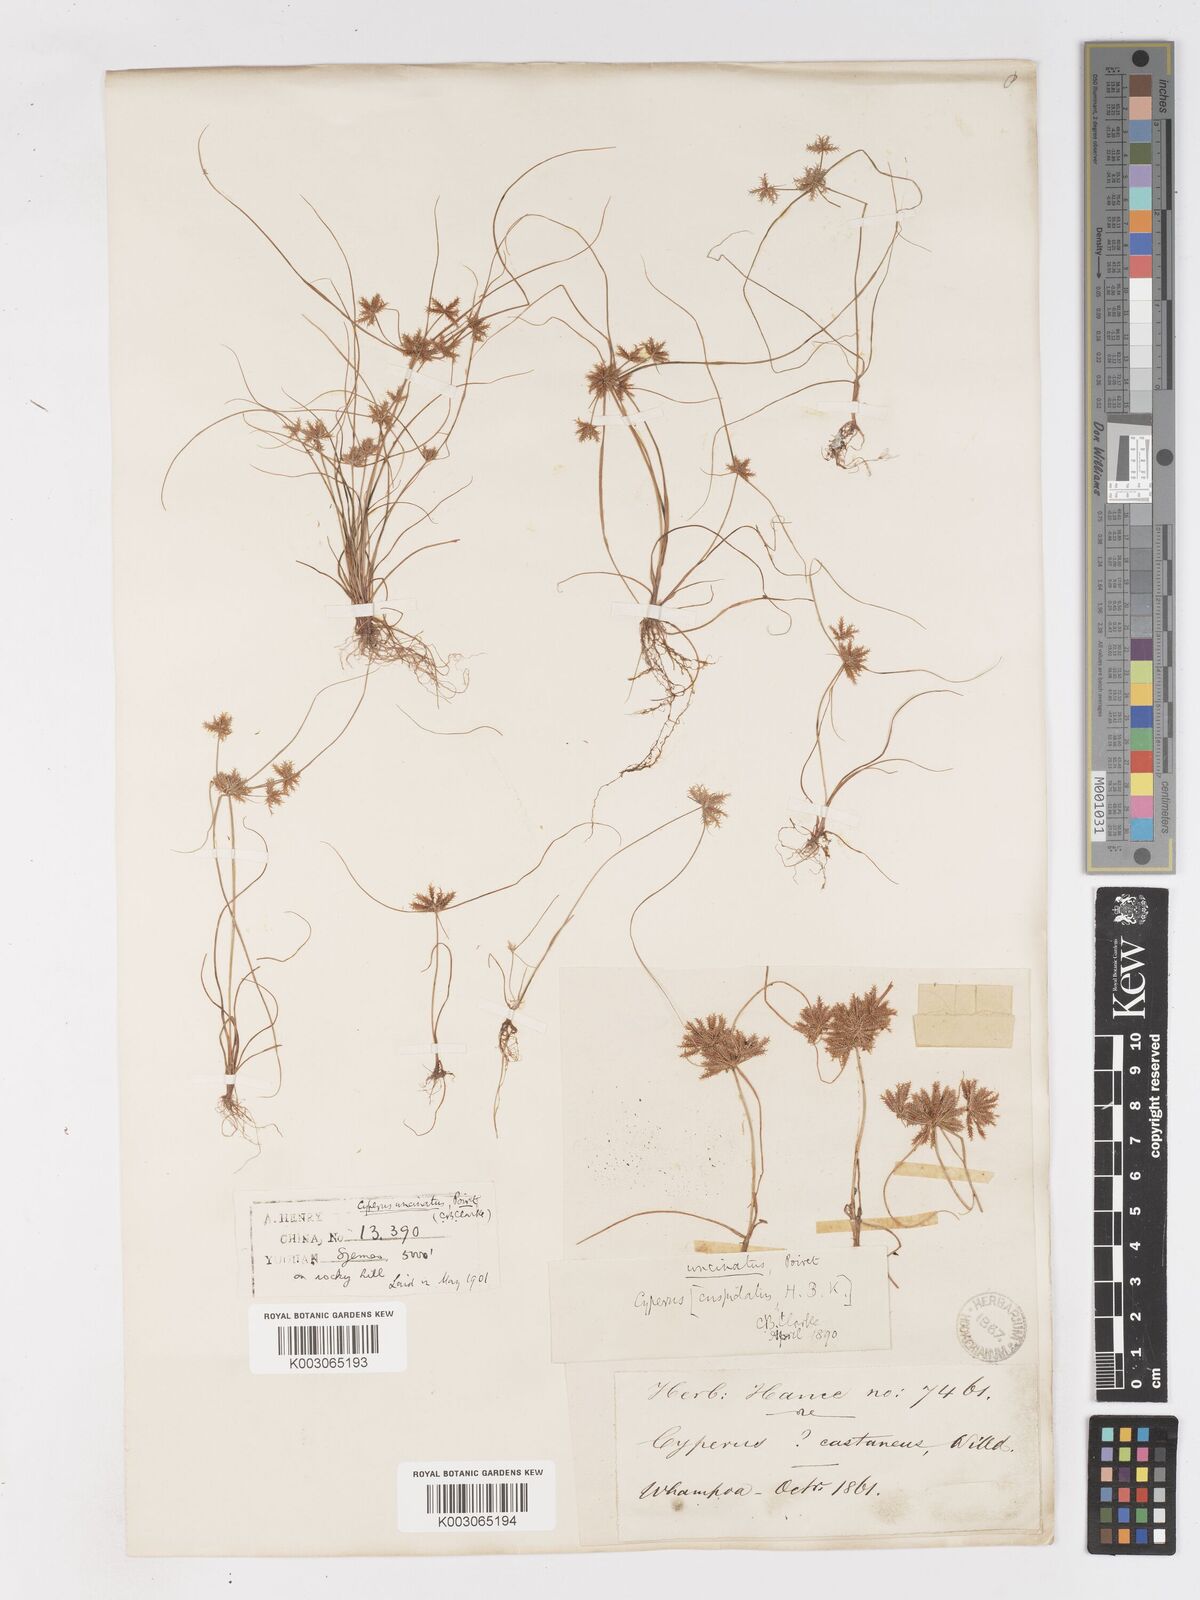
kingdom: Plantae
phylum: Tracheophyta
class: Liliopsida
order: Poales
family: Cyperaceae
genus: Cyperus
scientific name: Cyperus cuspidatus
